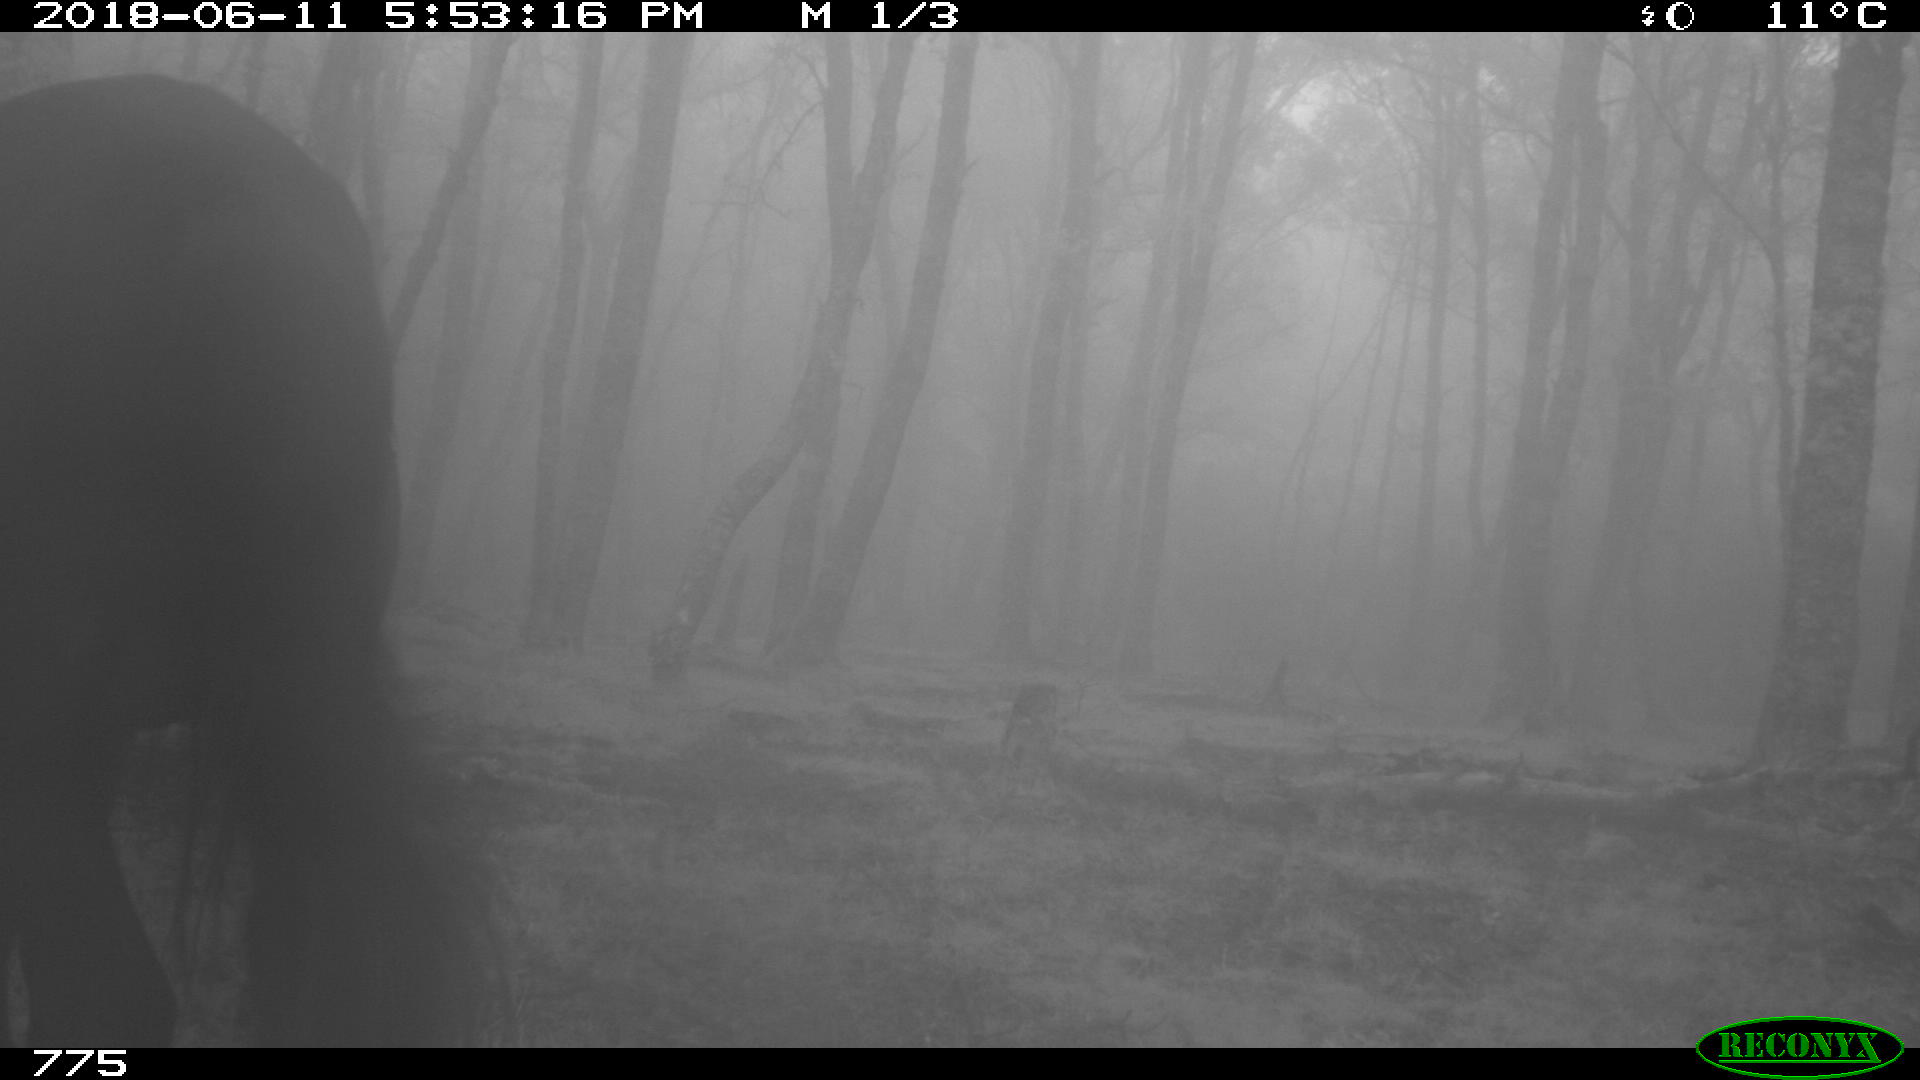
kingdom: Animalia
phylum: Chordata
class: Mammalia
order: Perissodactyla
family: Equidae
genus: Equus
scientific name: Equus caballus
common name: Horse
